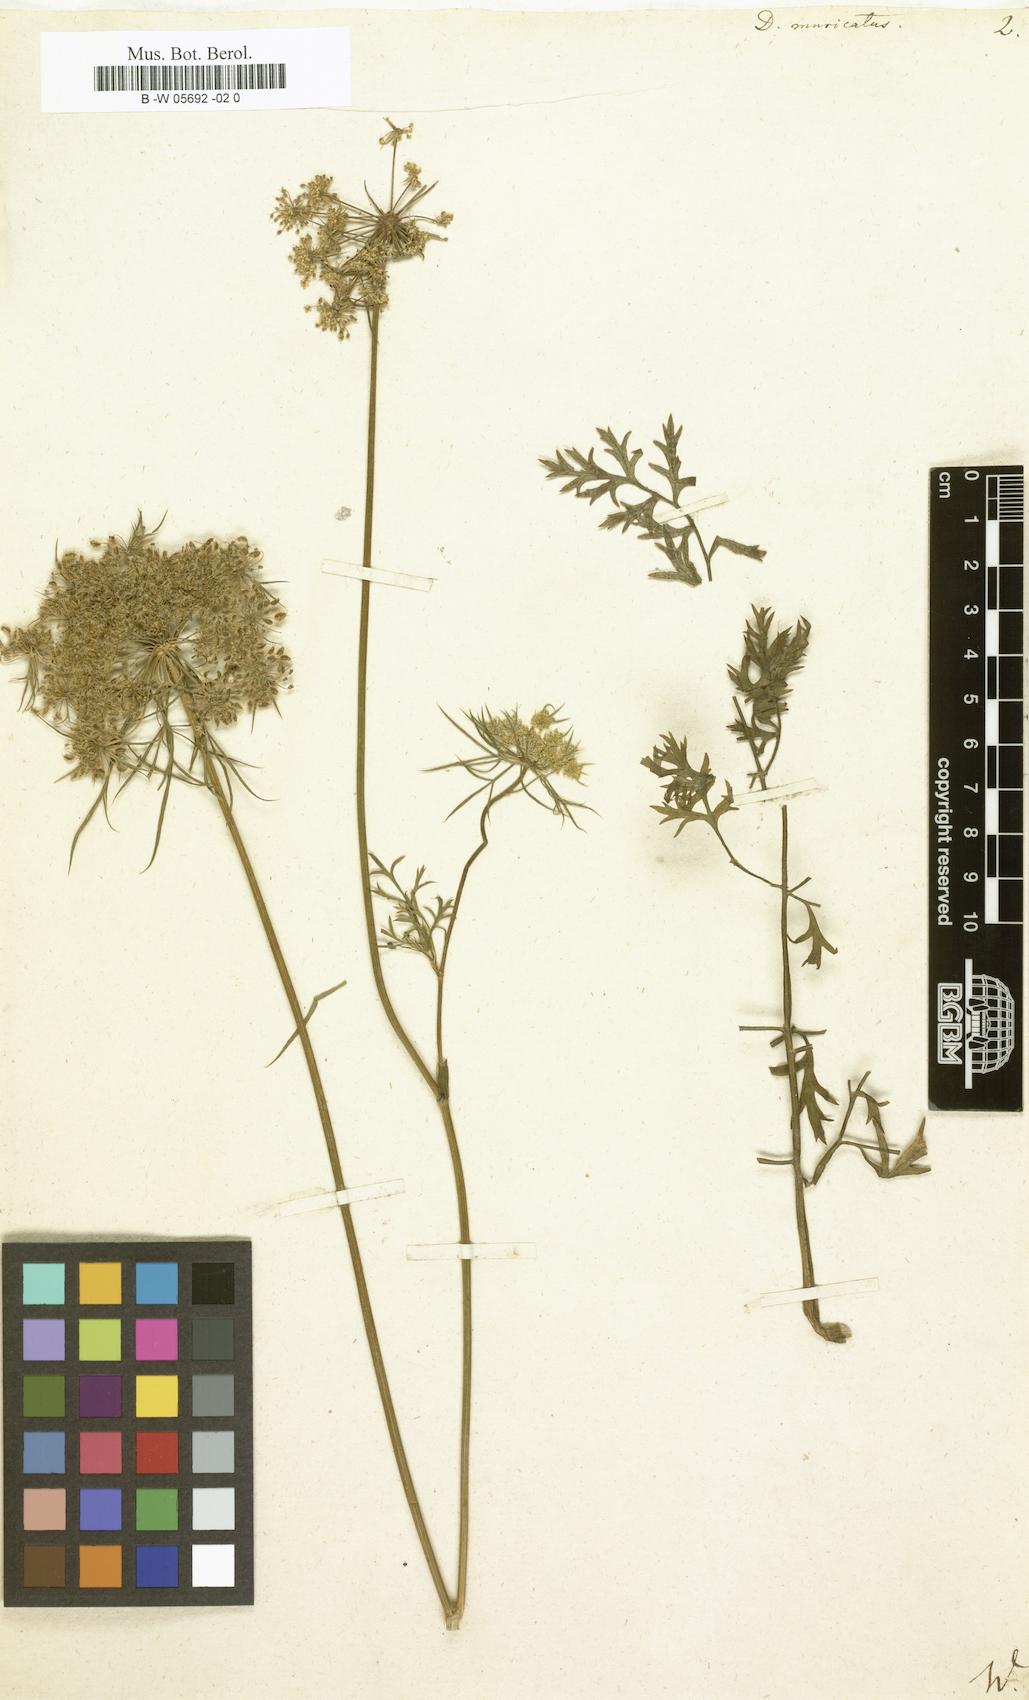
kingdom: Plantae
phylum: Tracheophyta
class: Magnoliopsida
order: Apiales
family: Apiaceae
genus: Daucus
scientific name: Daucus muricatus
